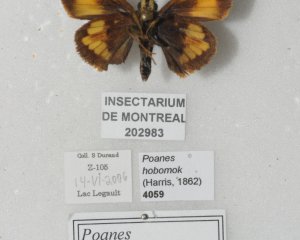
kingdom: Animalia
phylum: Arthropoda
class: Insecta
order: Lepidoptera
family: Hesperiidae
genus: Lon
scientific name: Lon hobomok
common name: Hobomok Skipper
